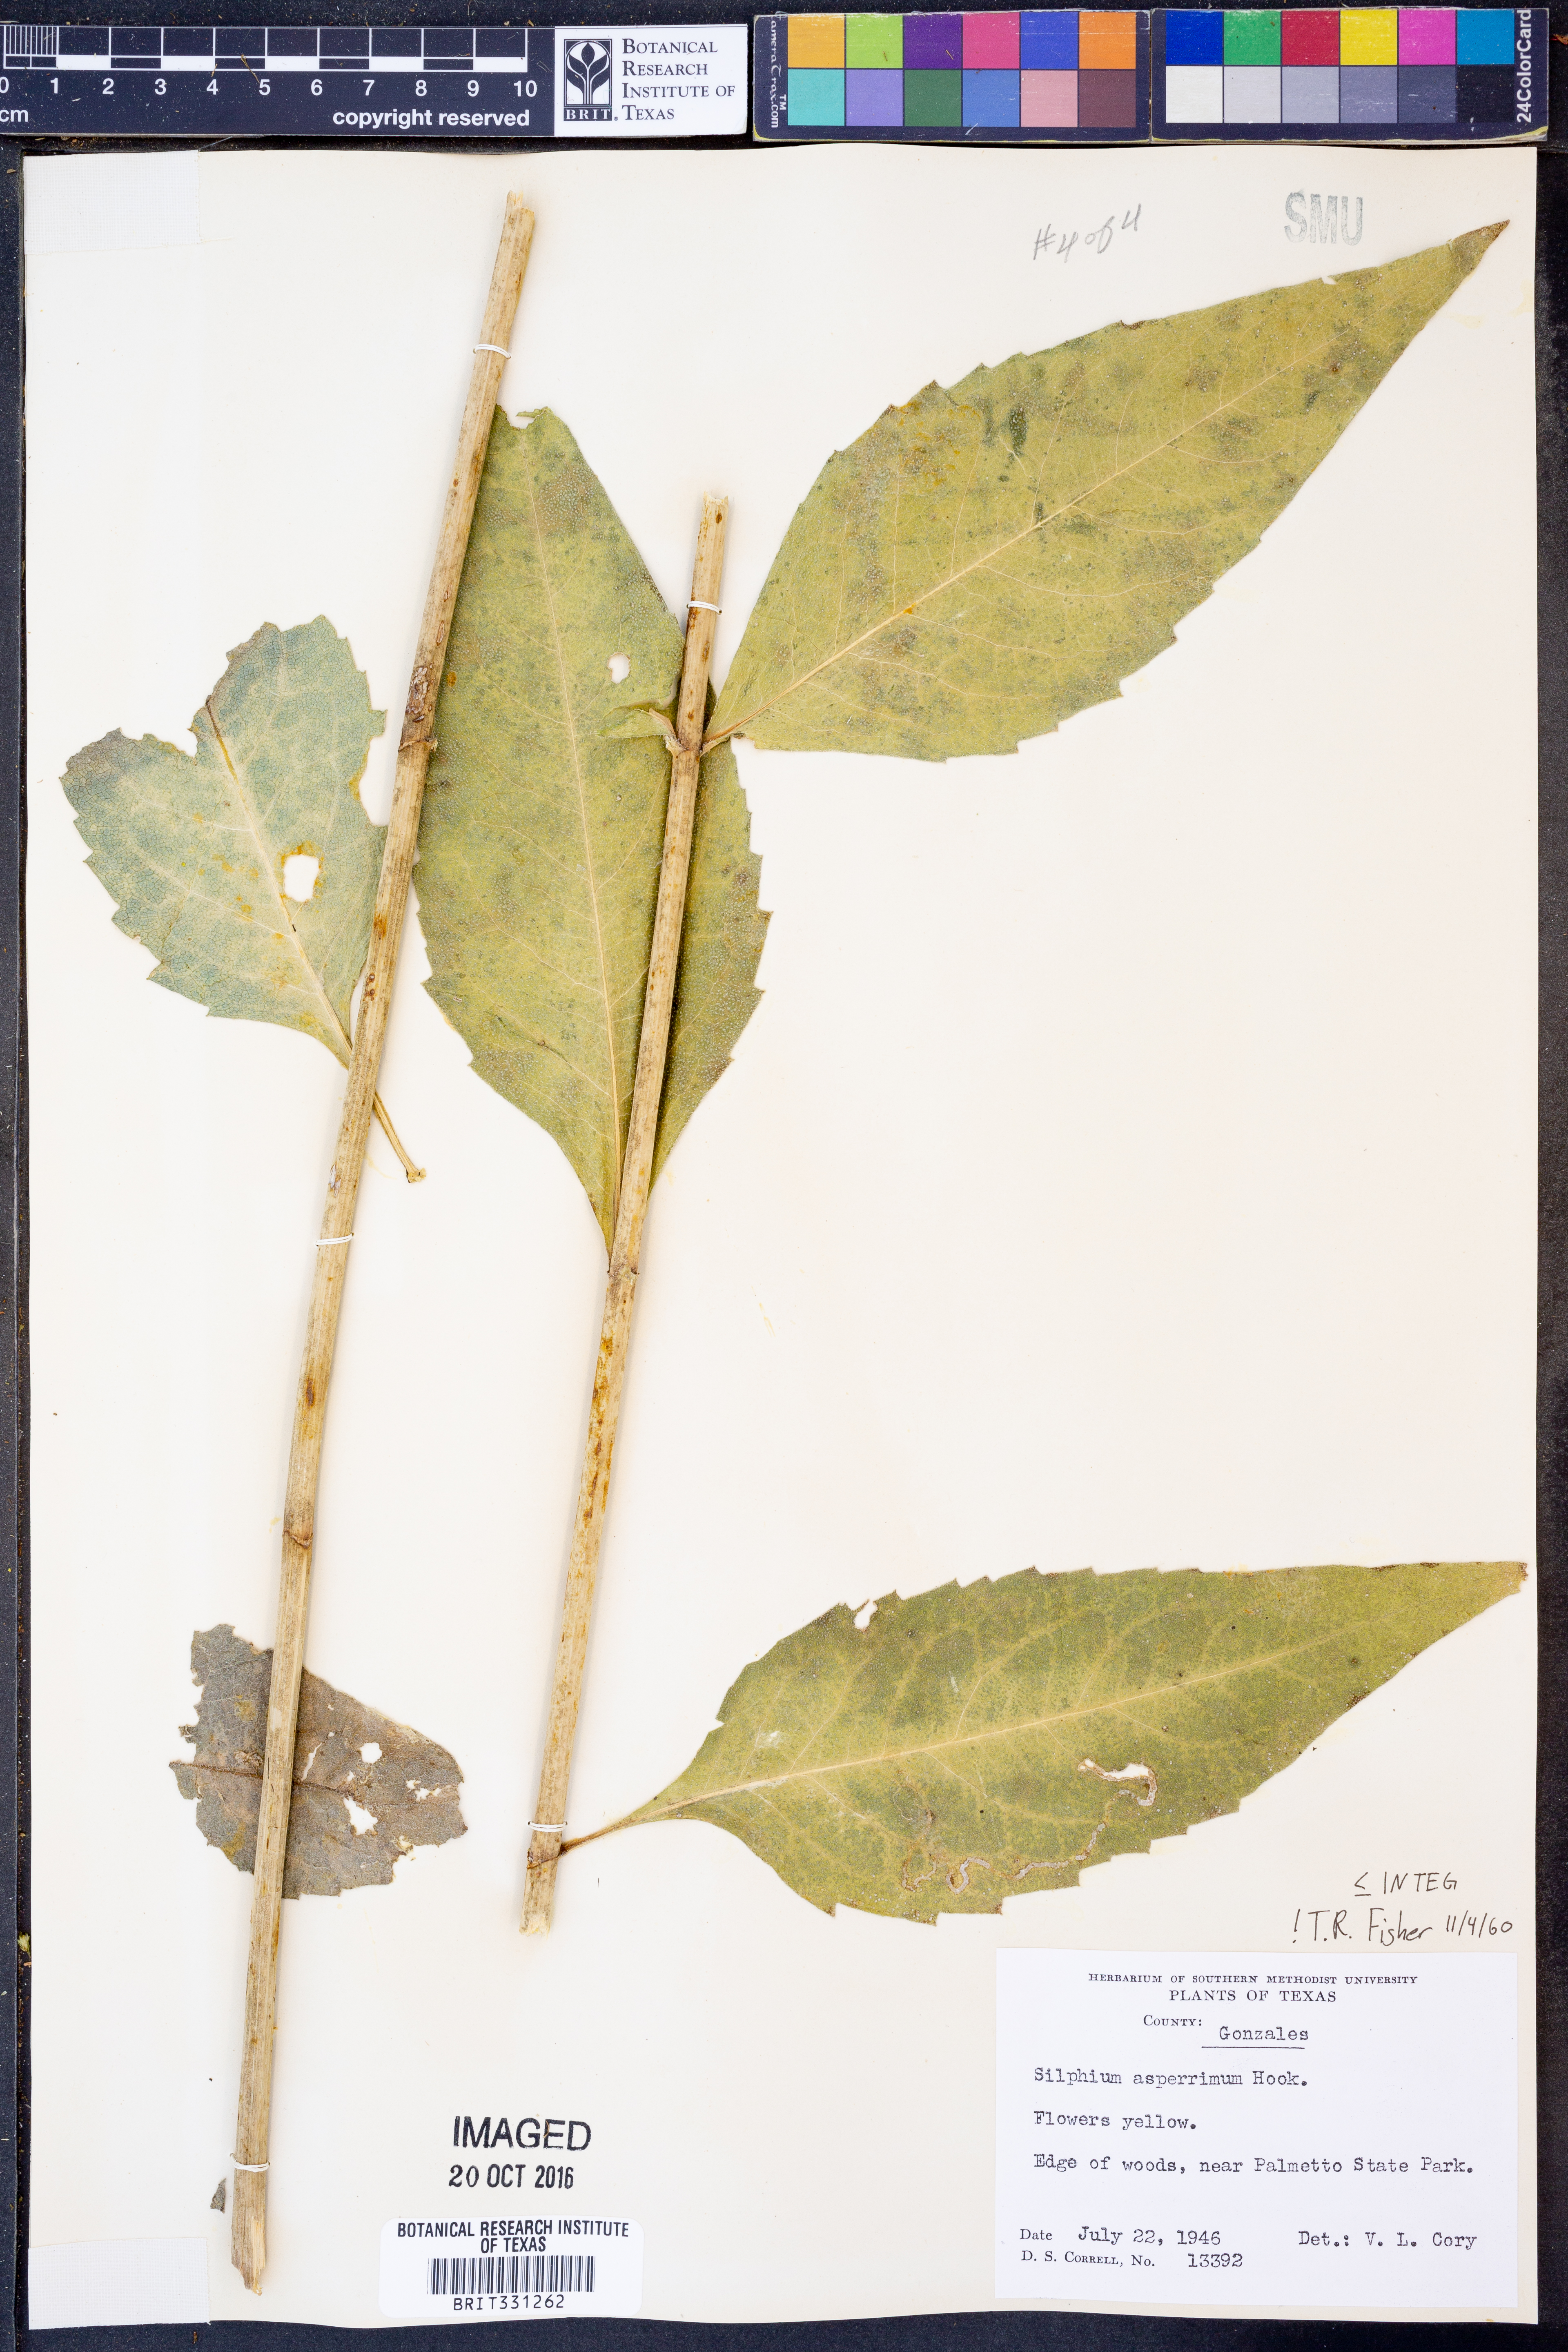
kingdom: Plantae
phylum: Tracheophyta
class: Magnoliopsida
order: Asterales
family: Asteraceae
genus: Silphium
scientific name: Silphium integrifolium
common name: Whole-leaf rosinweed
